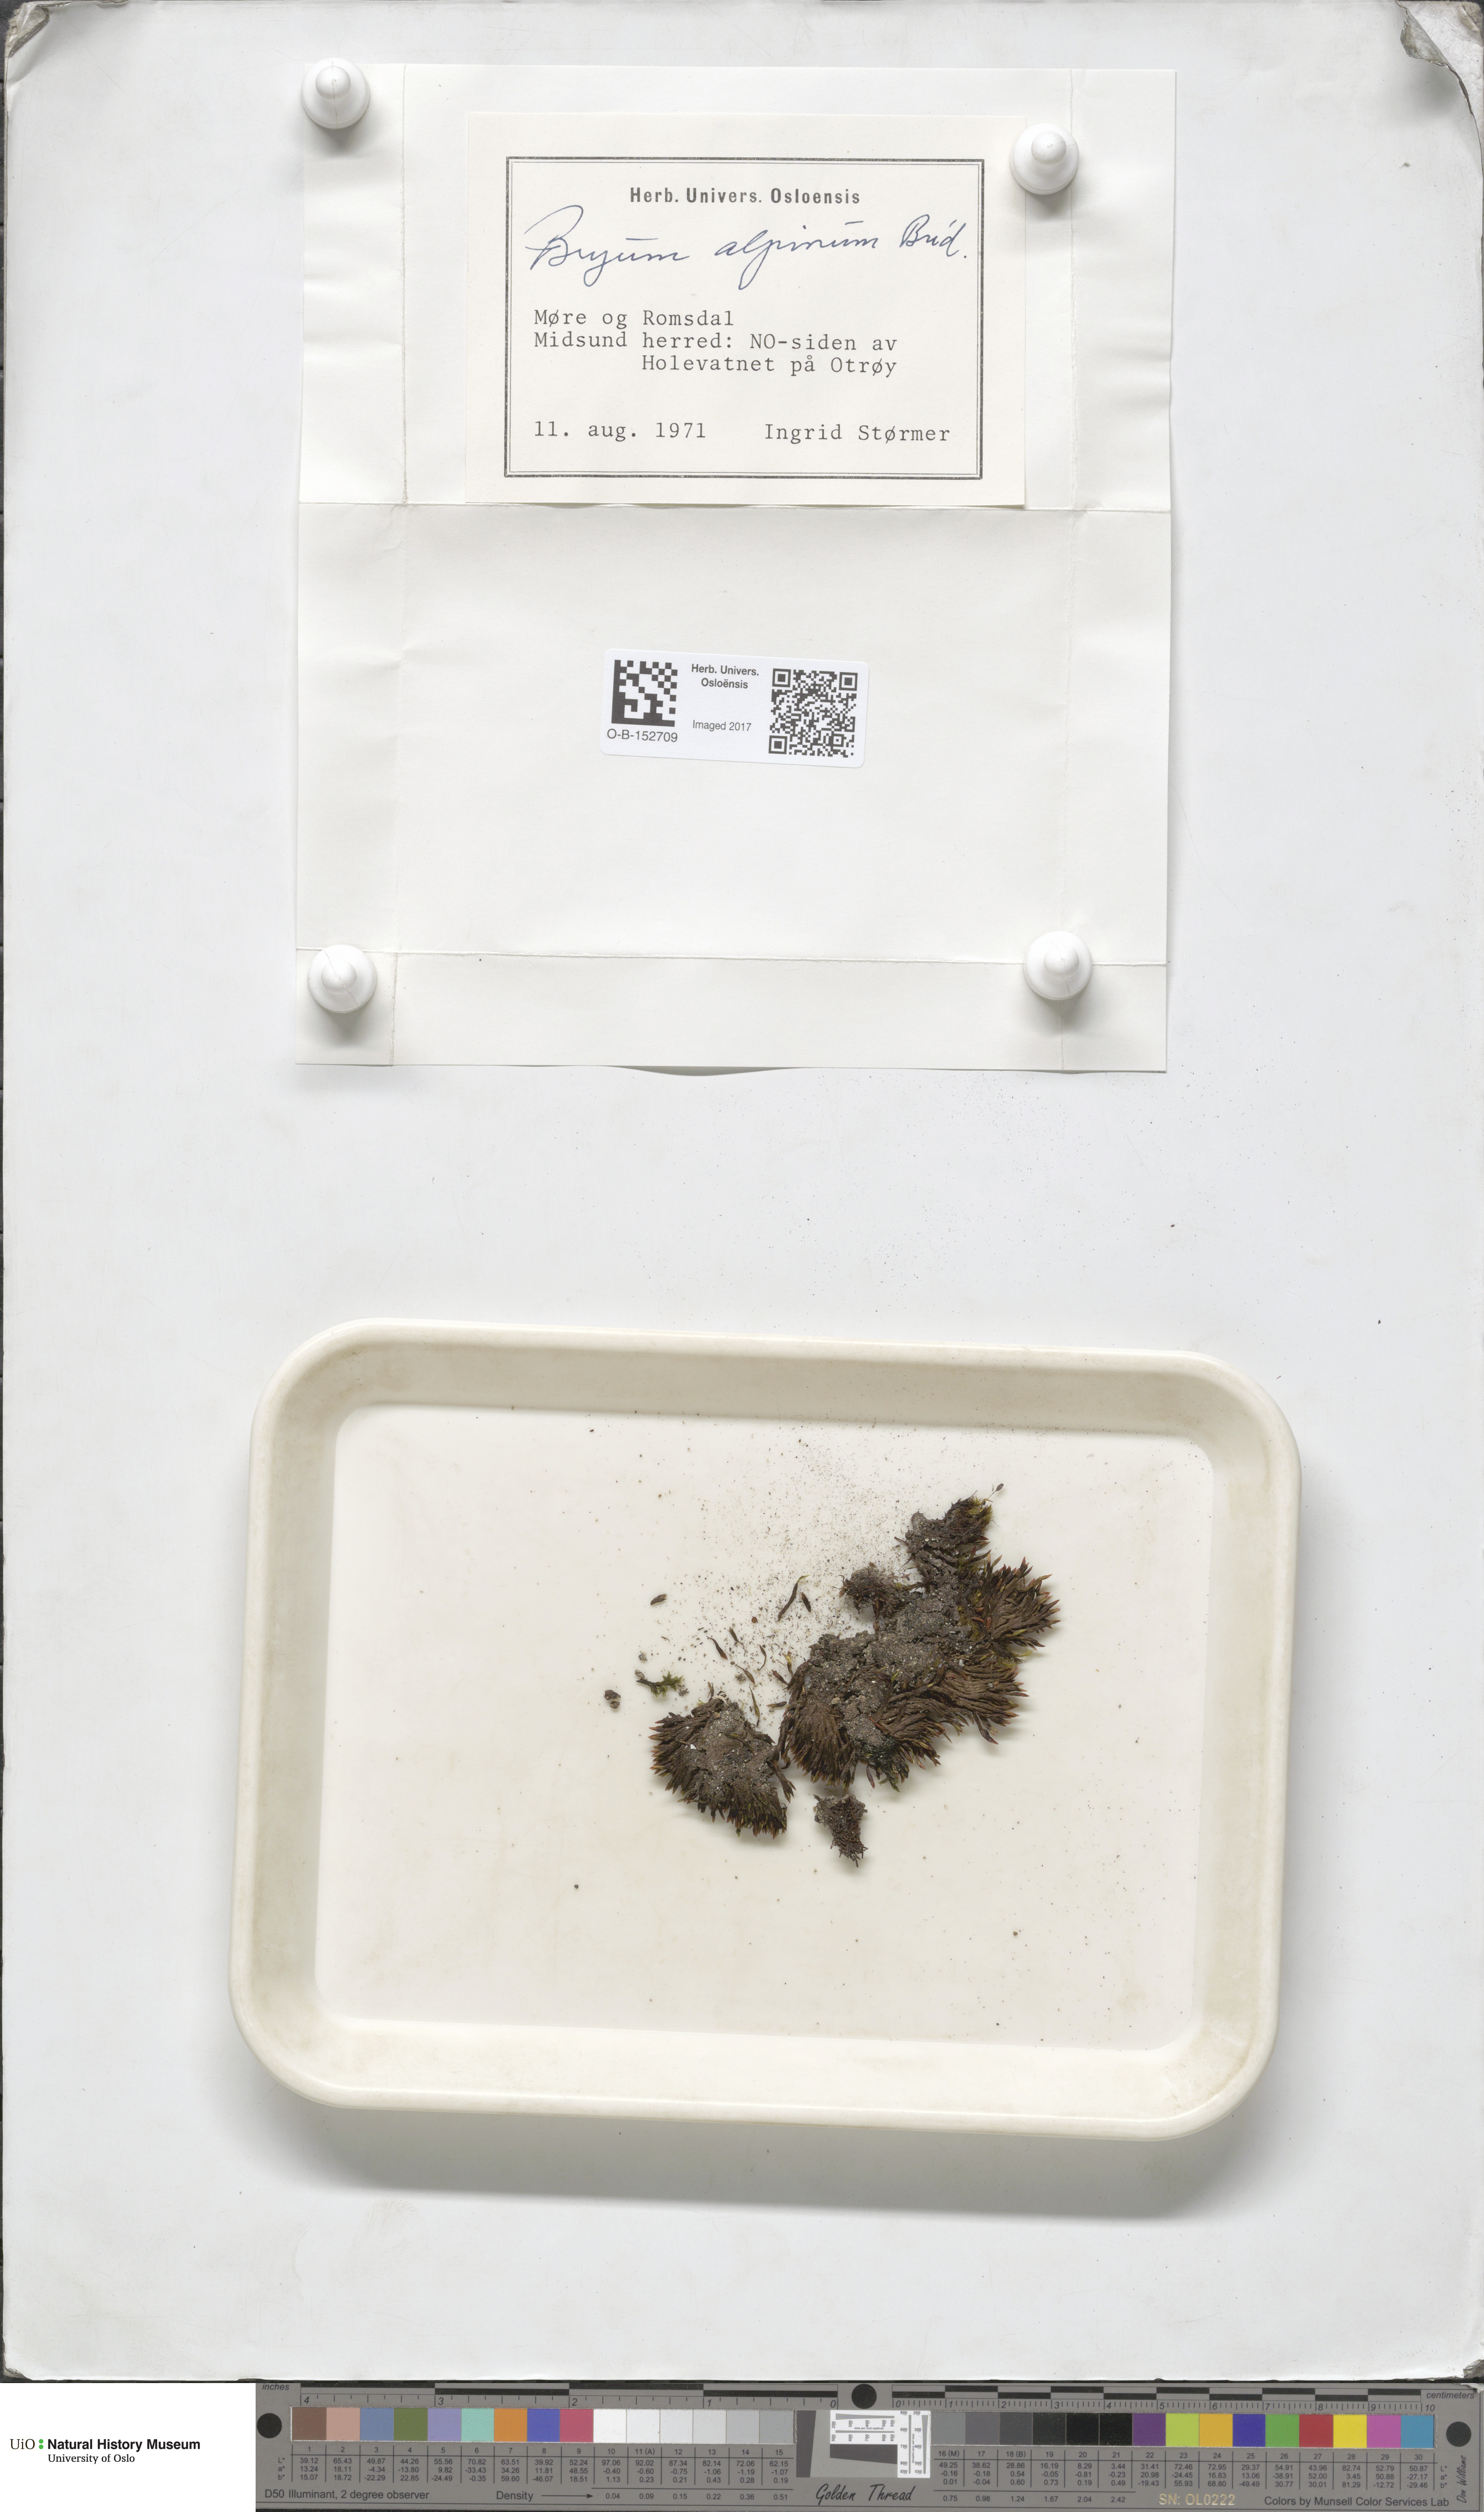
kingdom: Plantae
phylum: Bryophyta
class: Bryopsida
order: Bryales
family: Bryaceae
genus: Imbribryum
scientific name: Imbribryum alpinum
